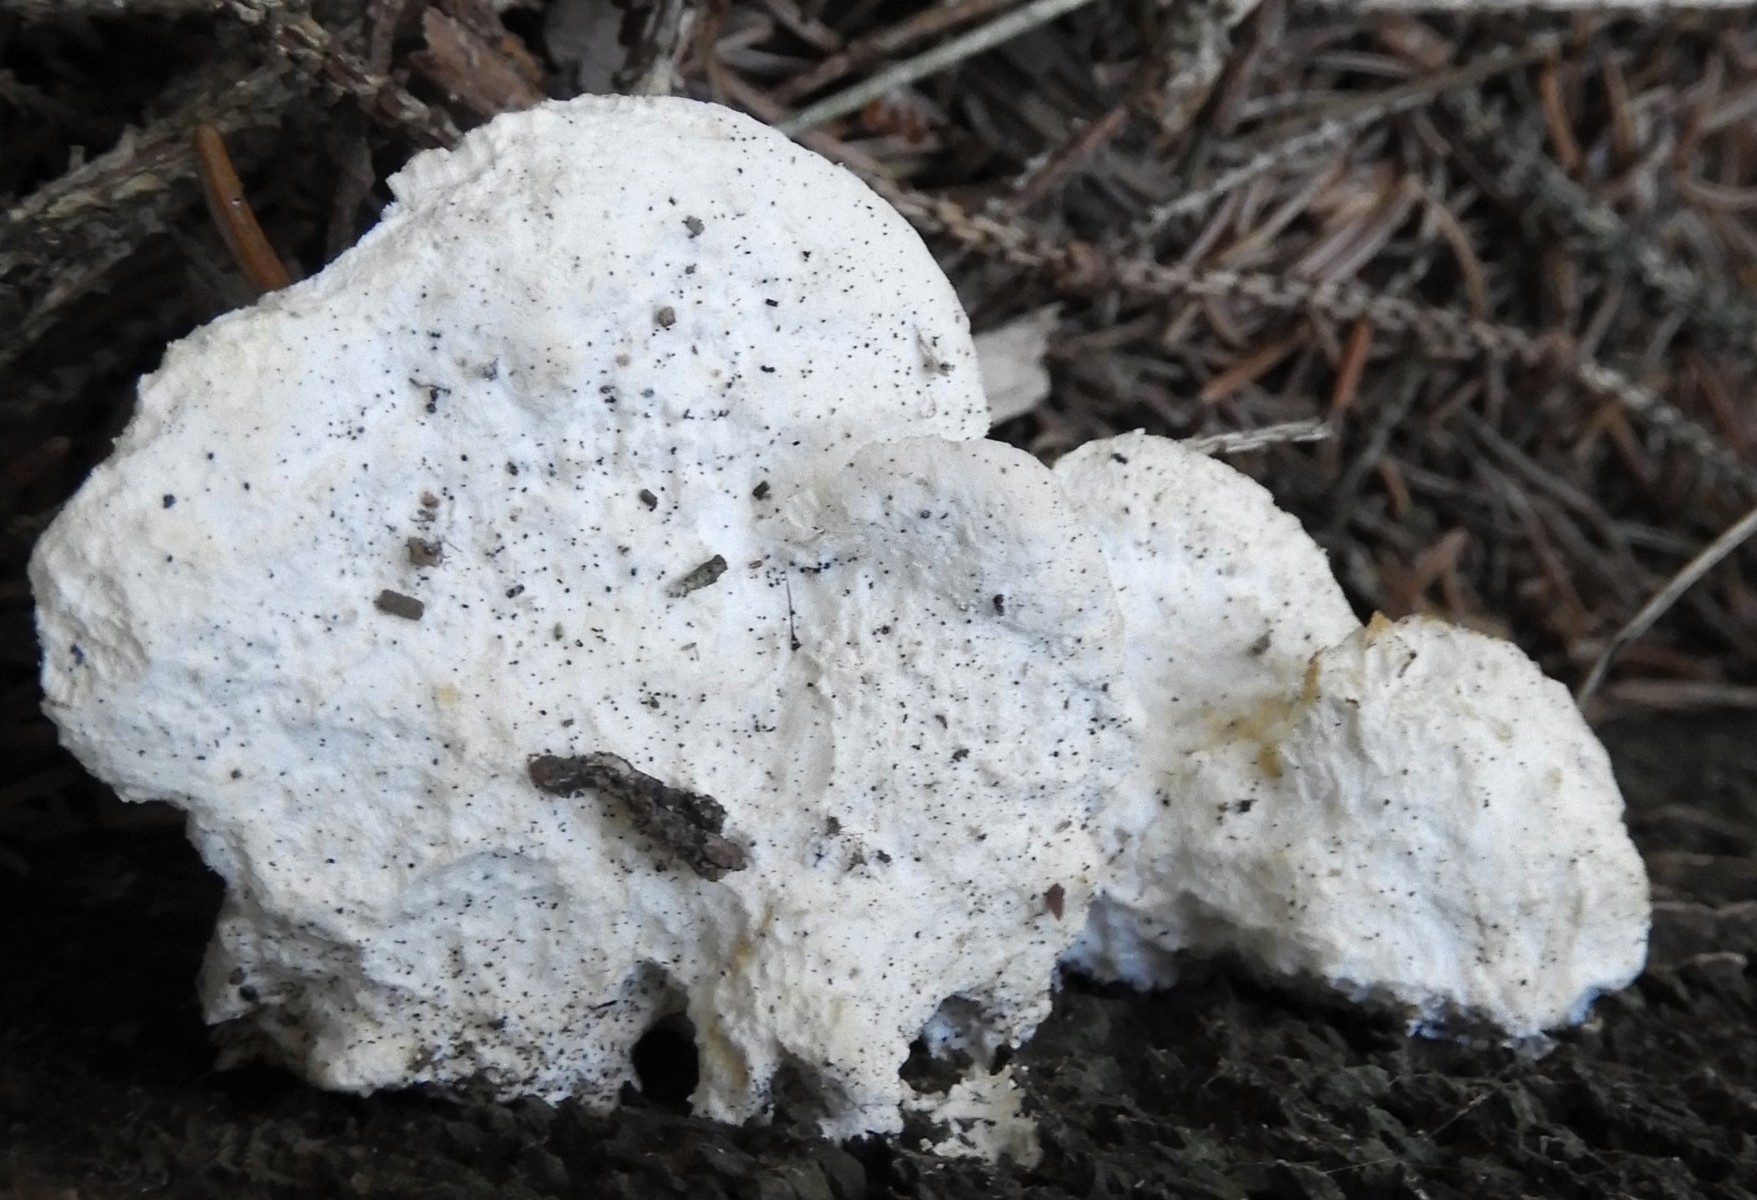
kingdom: Fungi
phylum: Basidiomycota
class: Agaricomycetes
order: Polyporales
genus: Amaropostia
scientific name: Amaropostia stiptica
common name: bitter kødporesvamp
